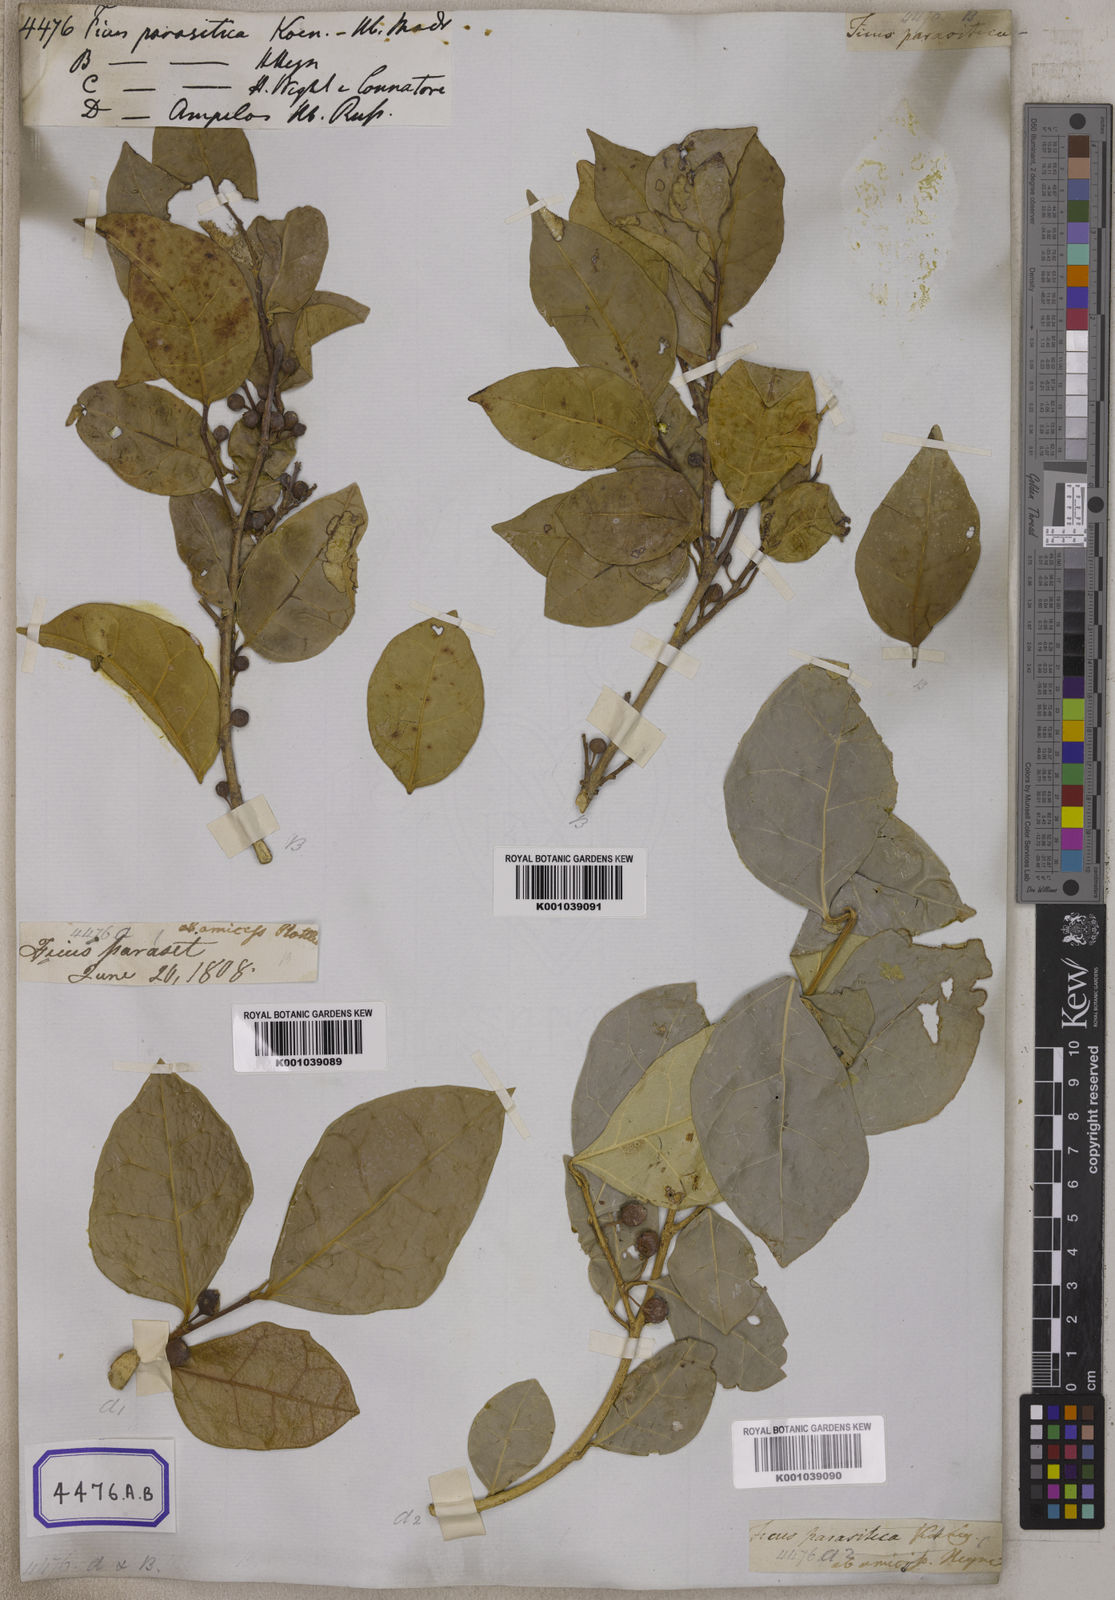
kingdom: Plantae
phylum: Tracheophyta
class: Magnoliopsida
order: Rosales
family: Moraceae
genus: Ficus
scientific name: Ficus tinctoria
